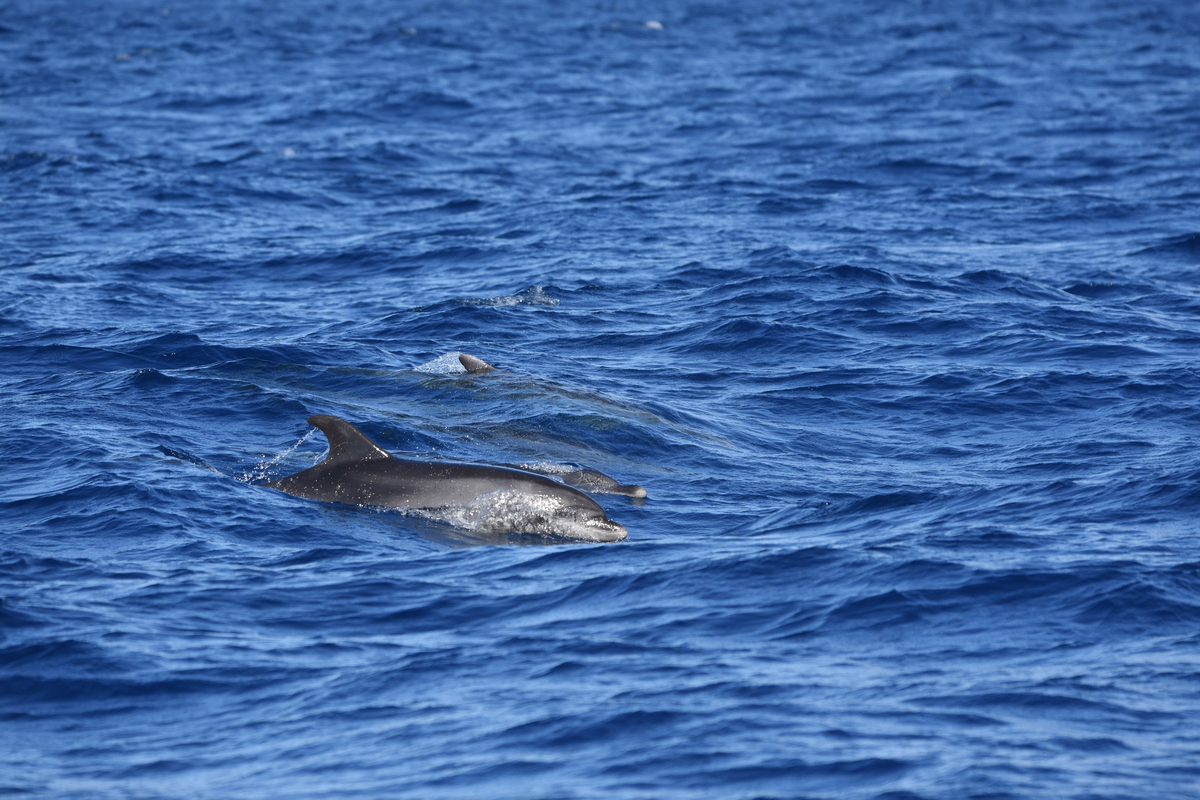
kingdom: Animalia
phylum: Chordata
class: Mammalia
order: Cetacea
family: Delphinidae
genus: Stenella
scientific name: Stenella frontalis
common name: Atlantic spotted dolphin
